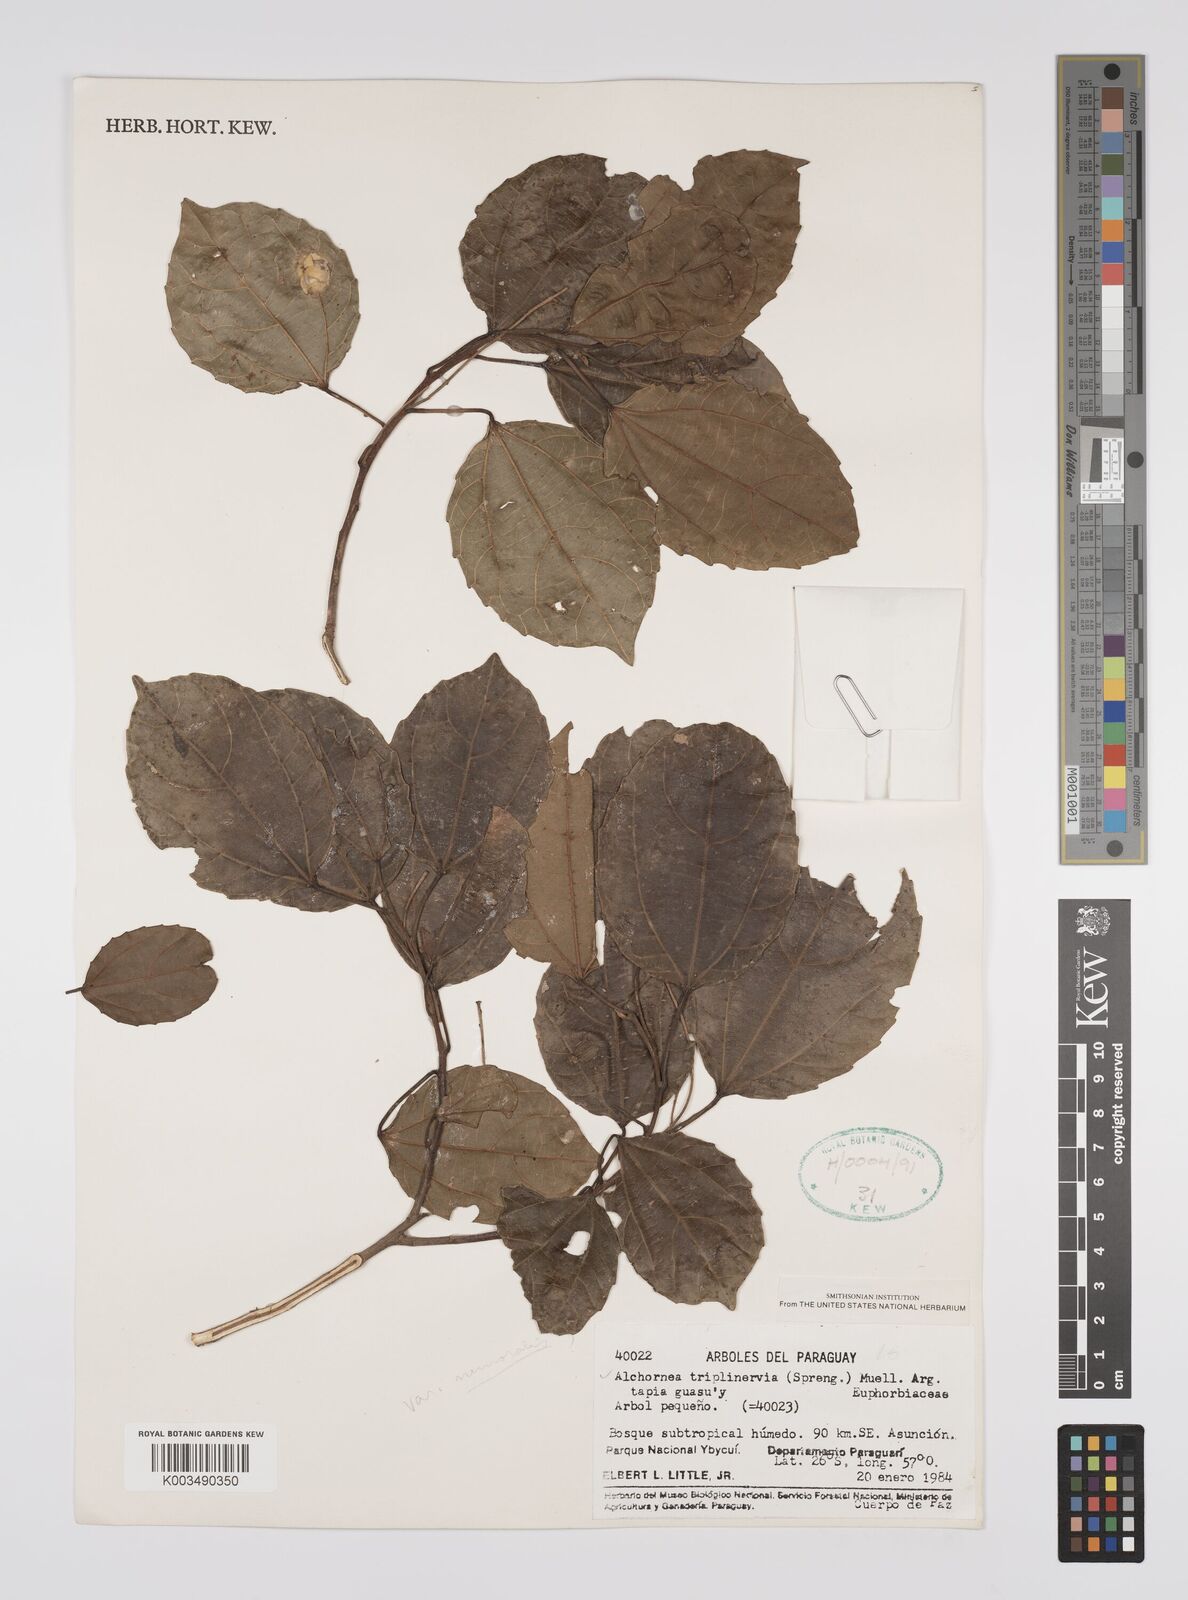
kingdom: Plantae
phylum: Tracheophyta
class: Magnoliopsida
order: Malpighiales
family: Euphorbiaceae
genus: Alchornea
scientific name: Alchornea triplinervia
